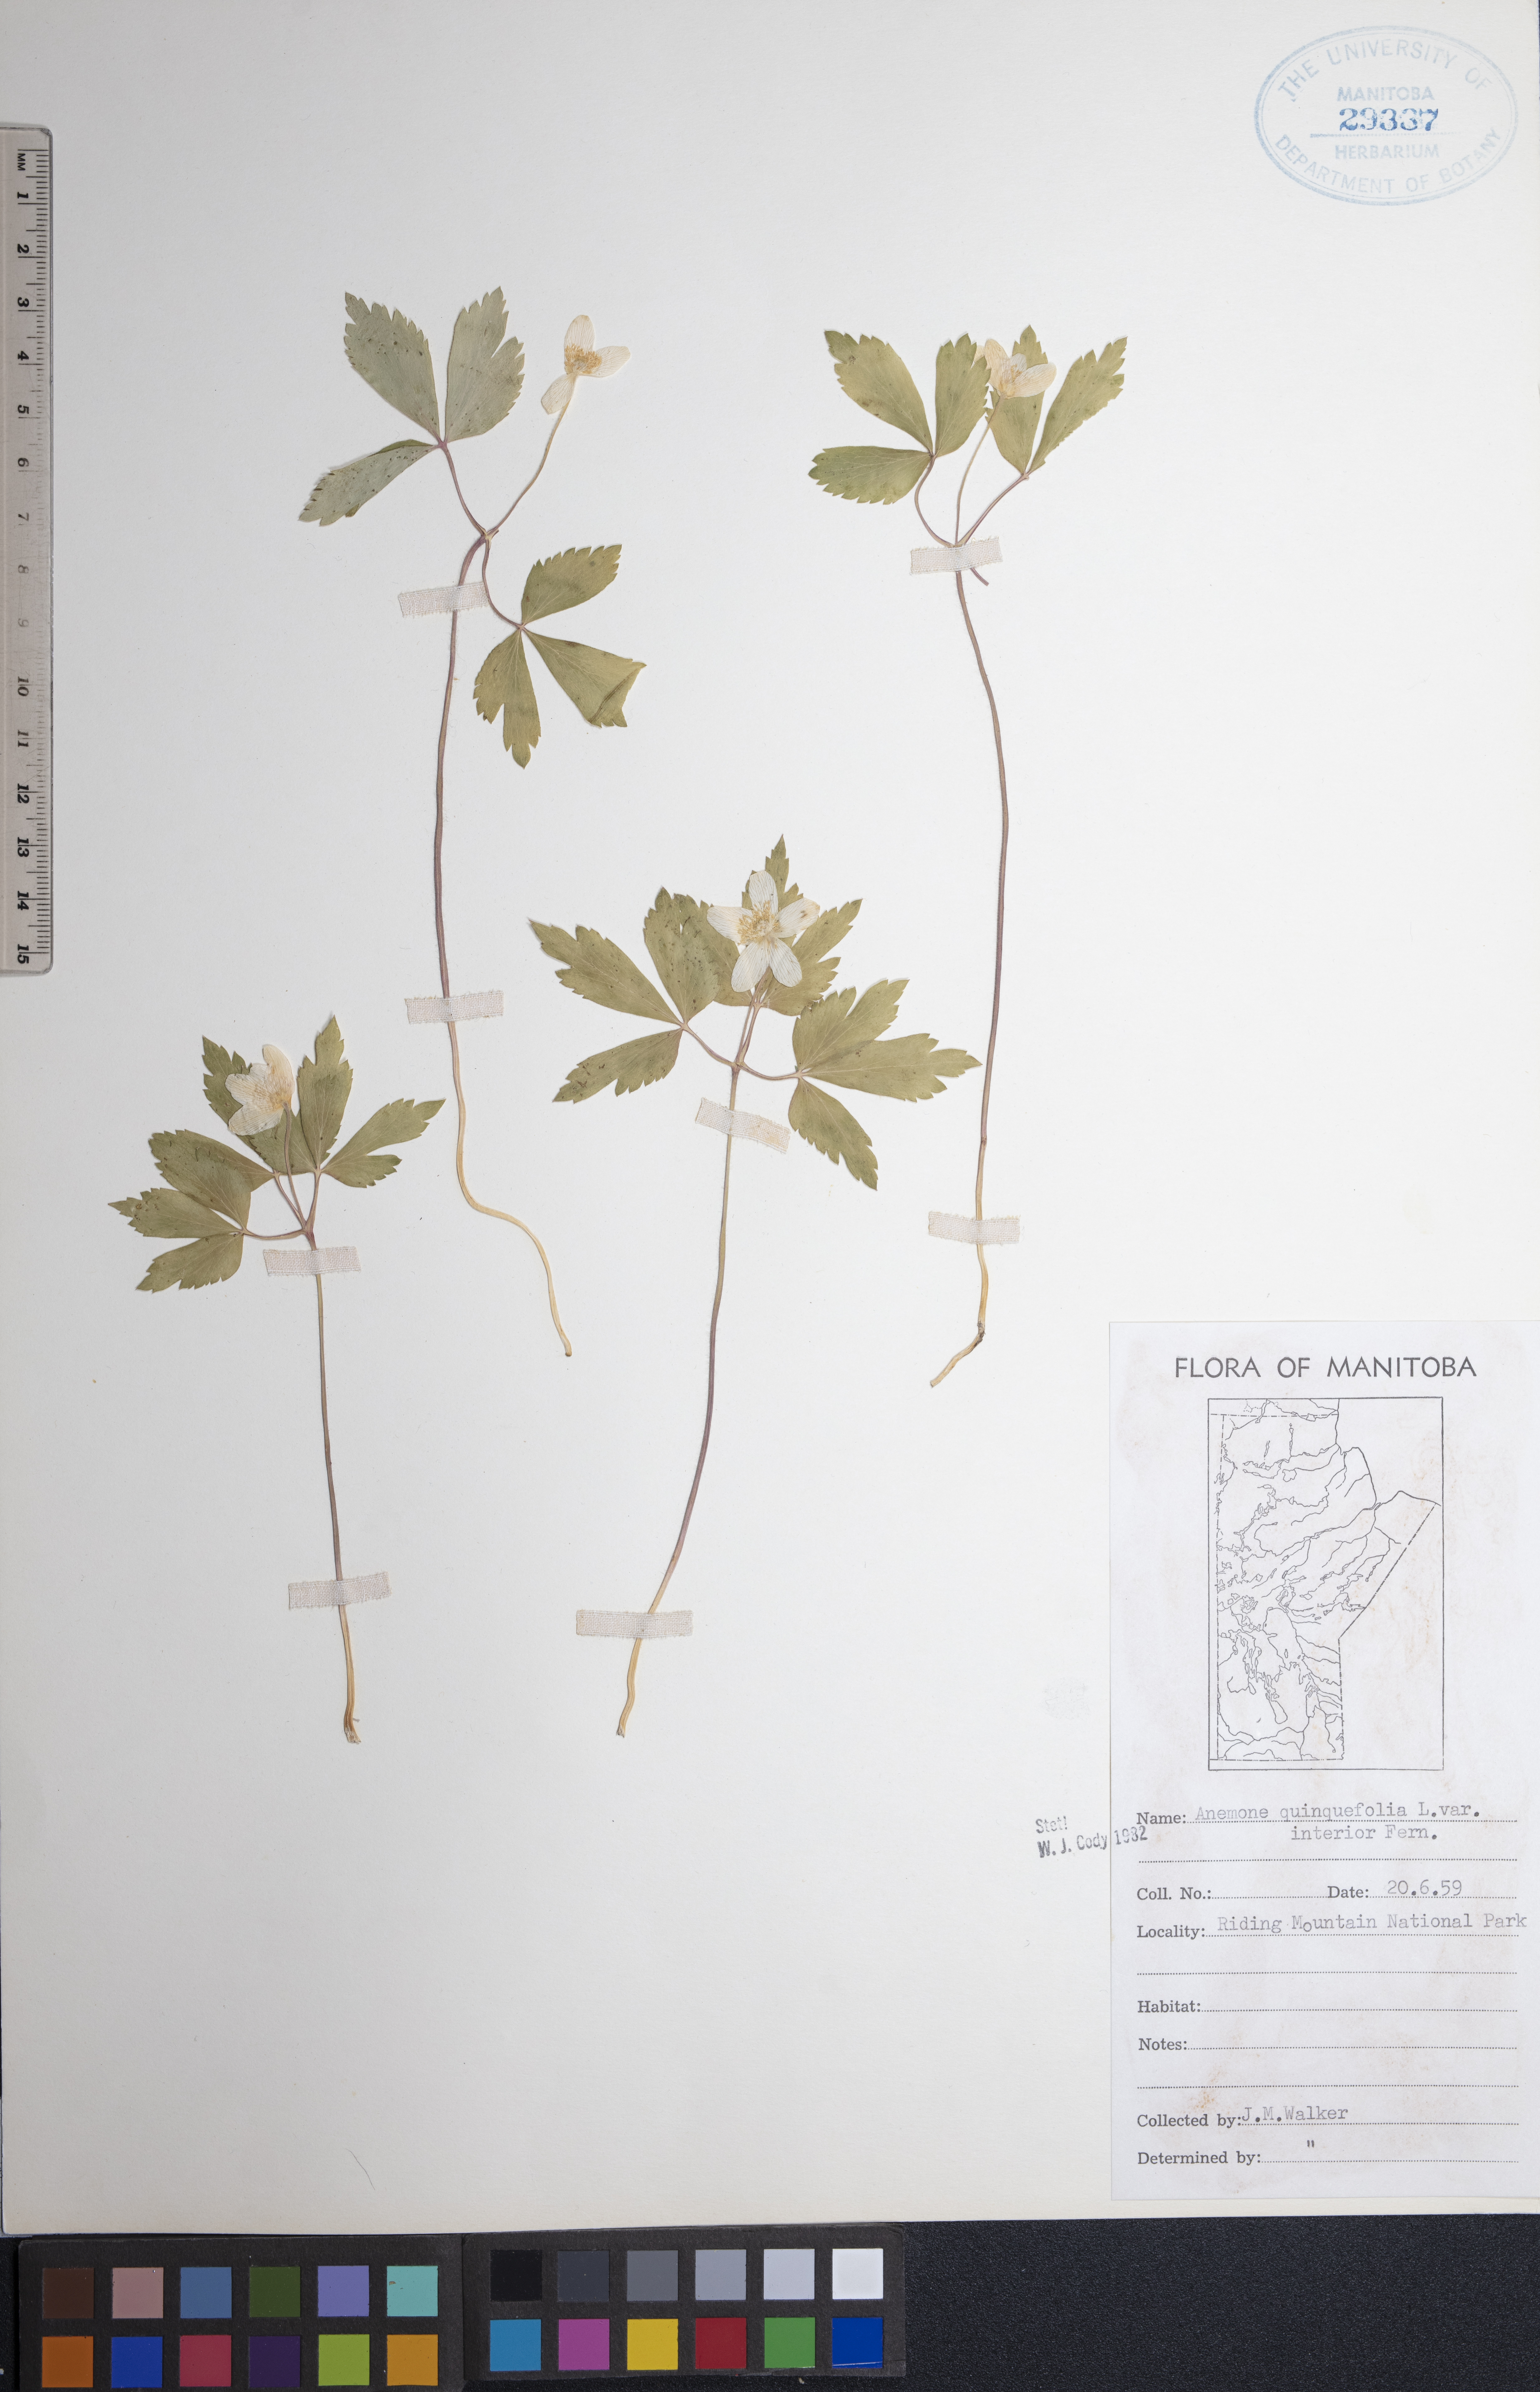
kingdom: Plantae
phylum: Tracheophyta
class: Magnoliopsida
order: Ranunculales
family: Ranunculaceae
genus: Anemone
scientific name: Anemone quinquefolia
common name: Wood anemone
